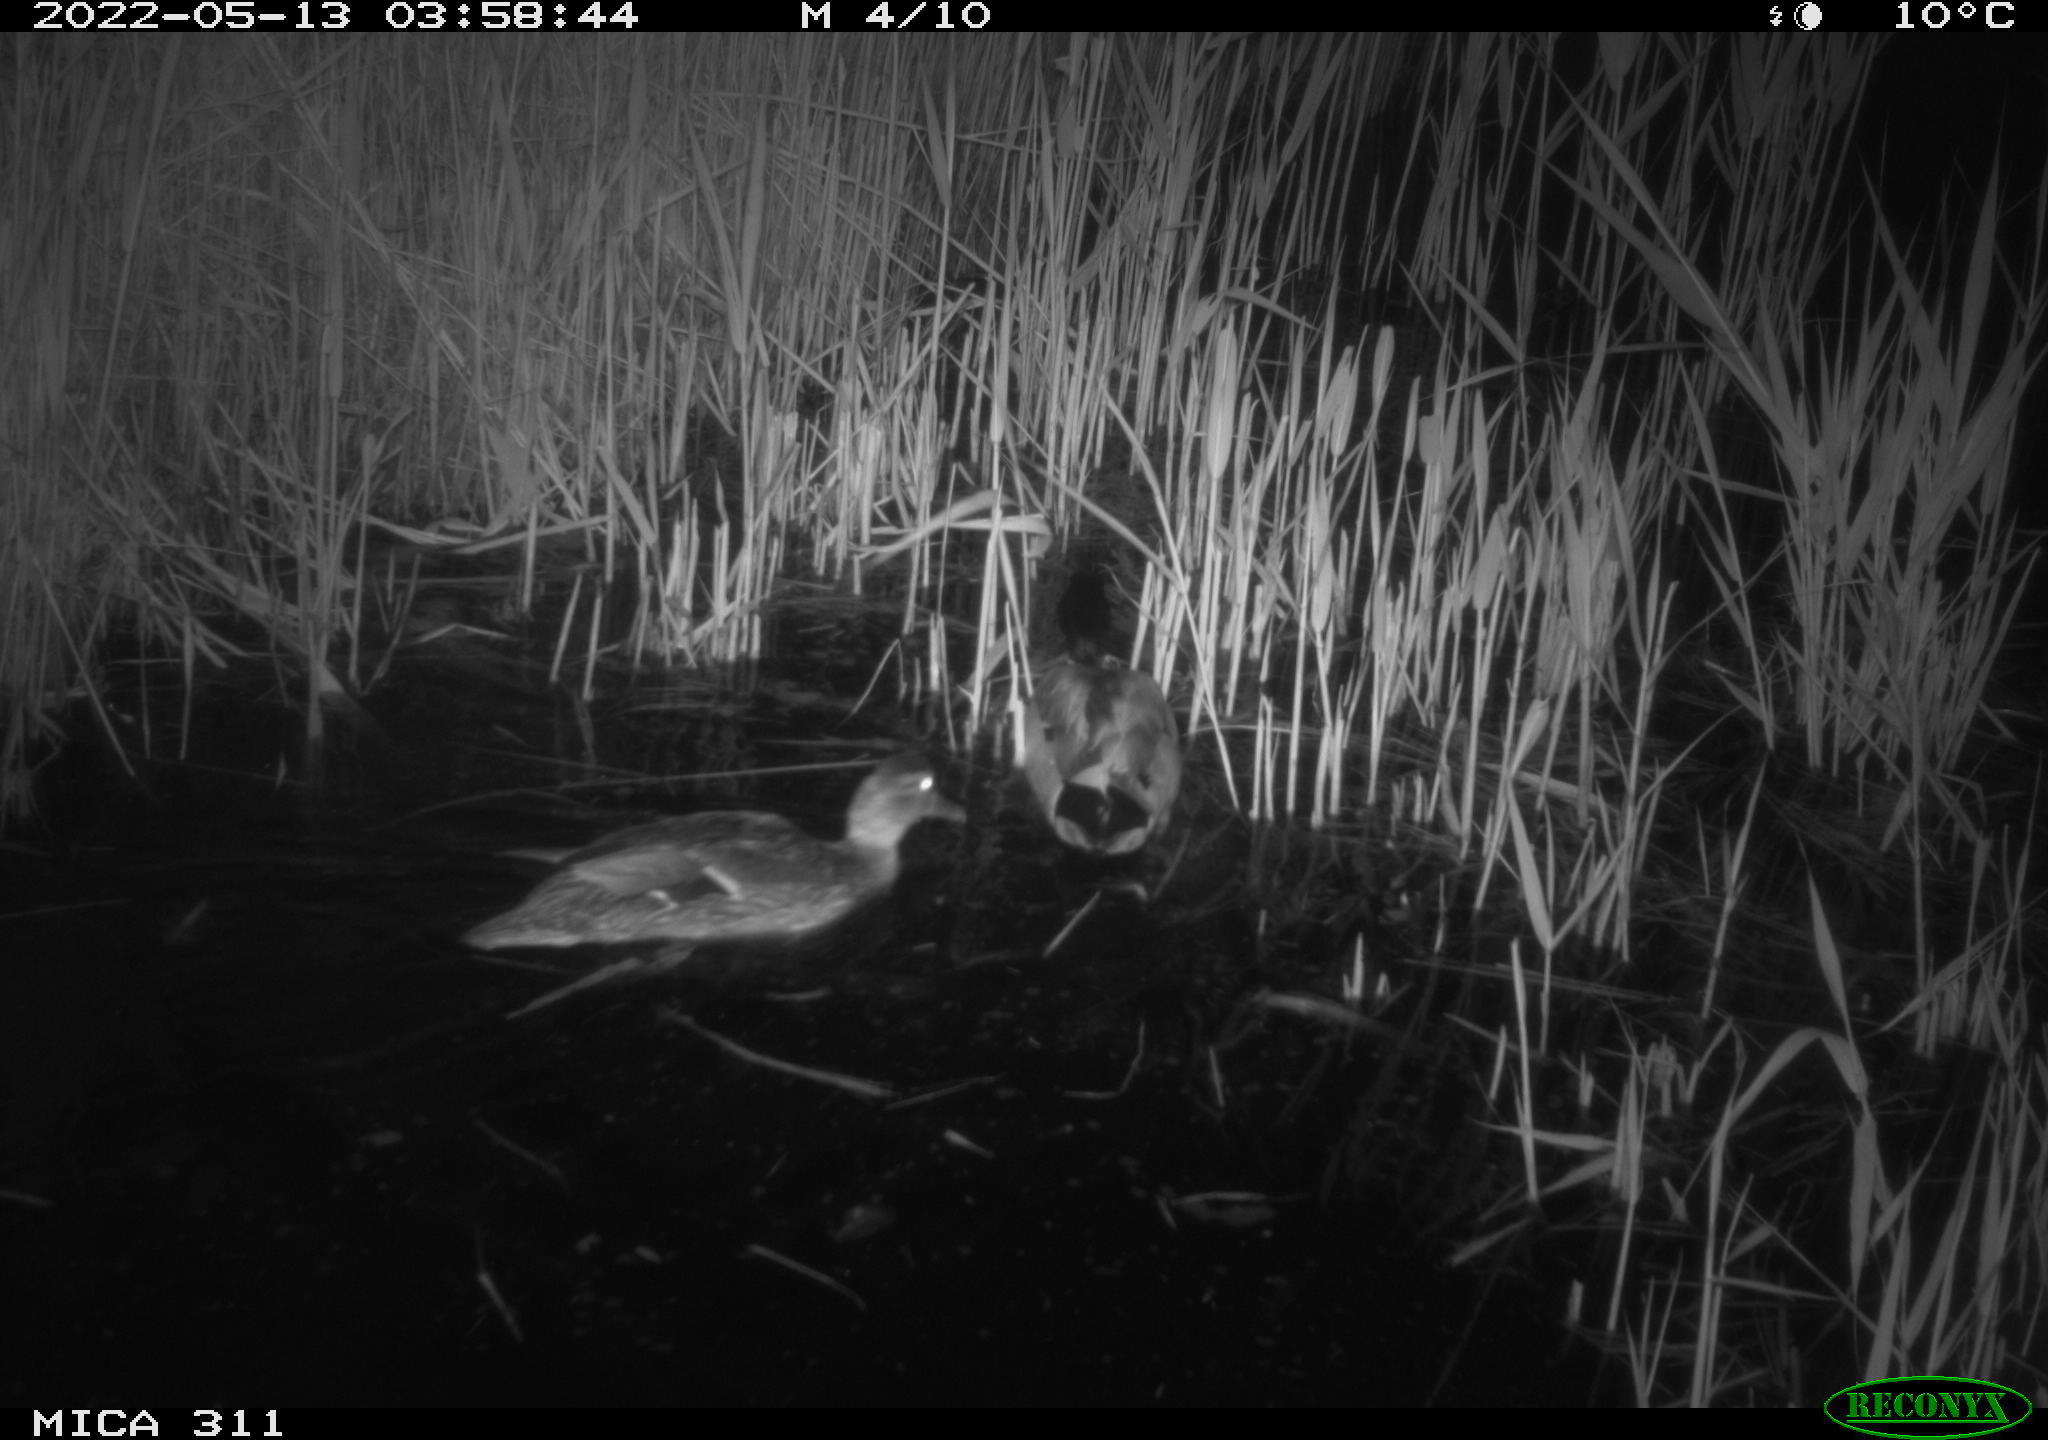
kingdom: Animalia
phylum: Chordata
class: Aves
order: Anseriformes
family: Anatidae
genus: Anas
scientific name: Anas
